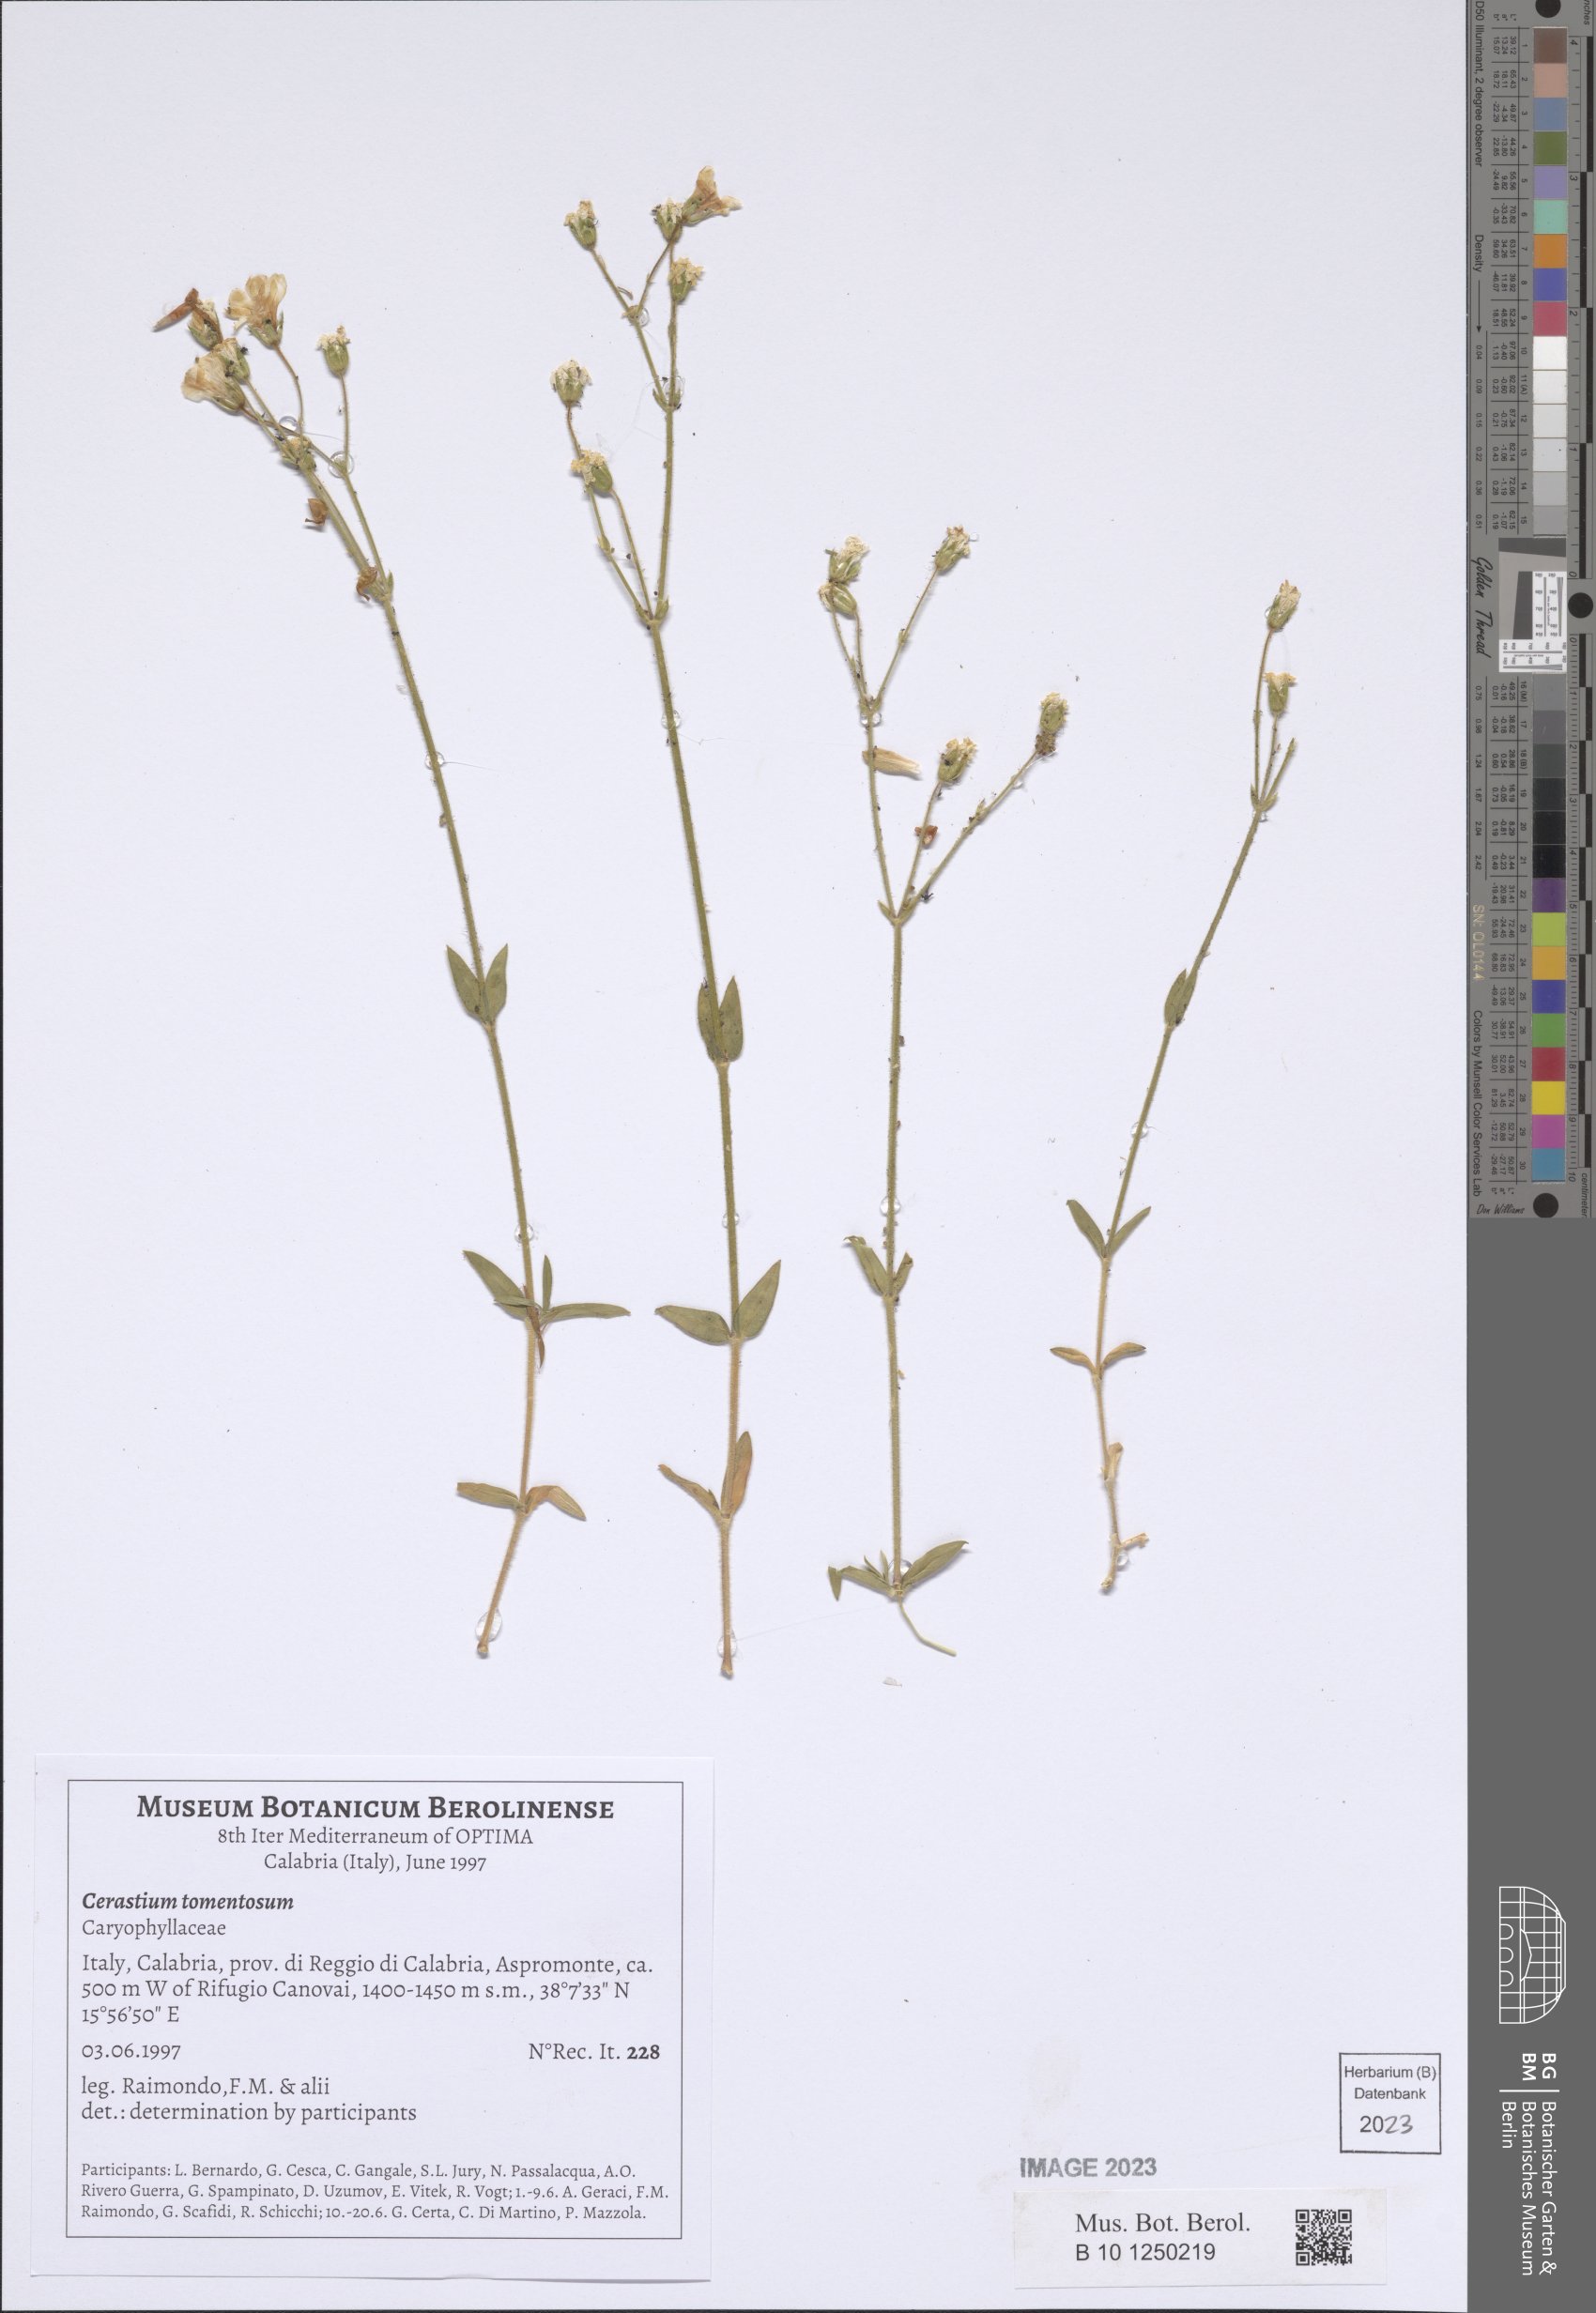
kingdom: Plantae
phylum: Tracheophyta
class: Magnoliopsida
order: Caryophyllales
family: Caryophyllaceae
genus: Cerastium
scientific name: Cerastium tomentosum
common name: Snow-in-summer
